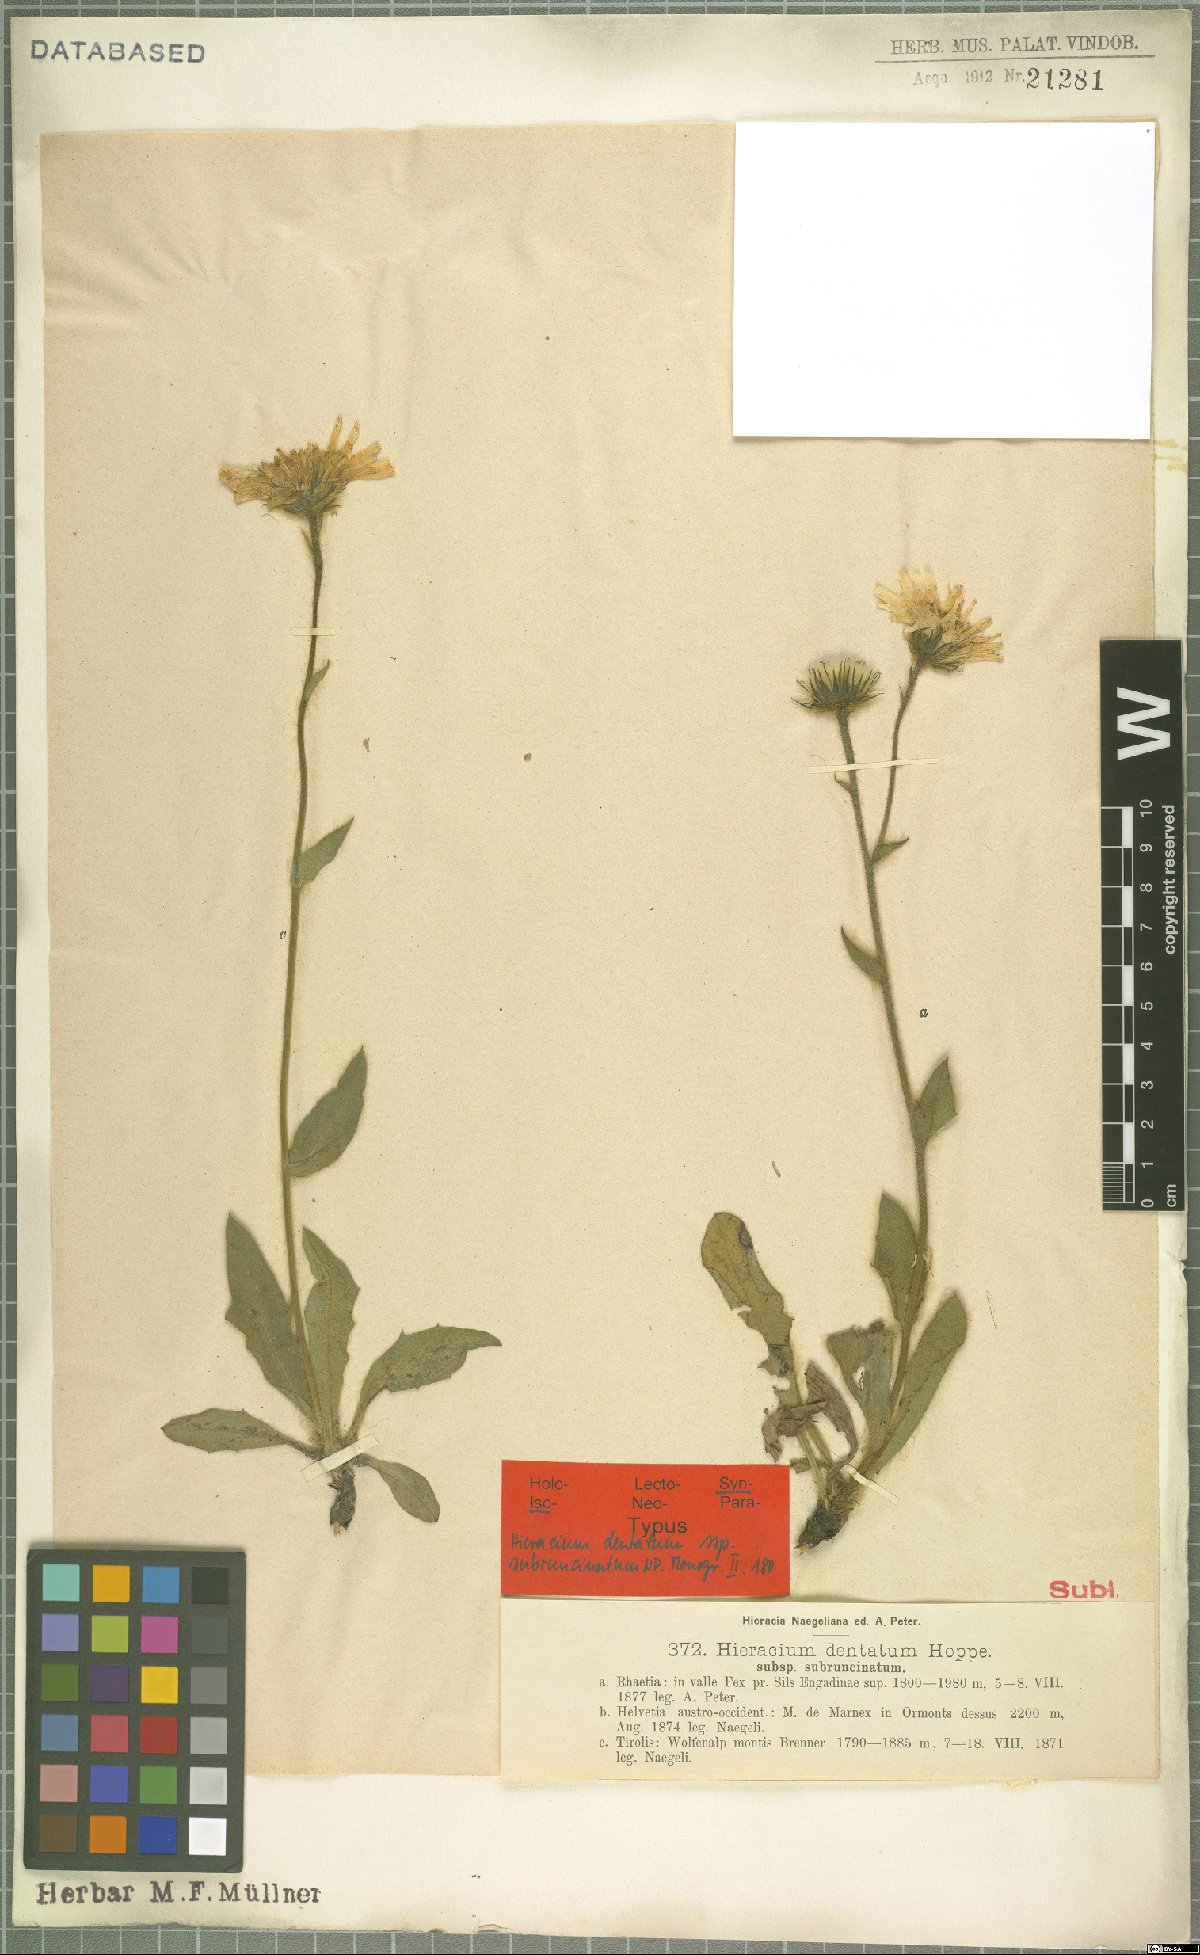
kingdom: Plantae
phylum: Tracheophyta
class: Magnoliopsida
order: Asterales
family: Asteraceae
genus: Hieracium
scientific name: Hieracium dentatum
